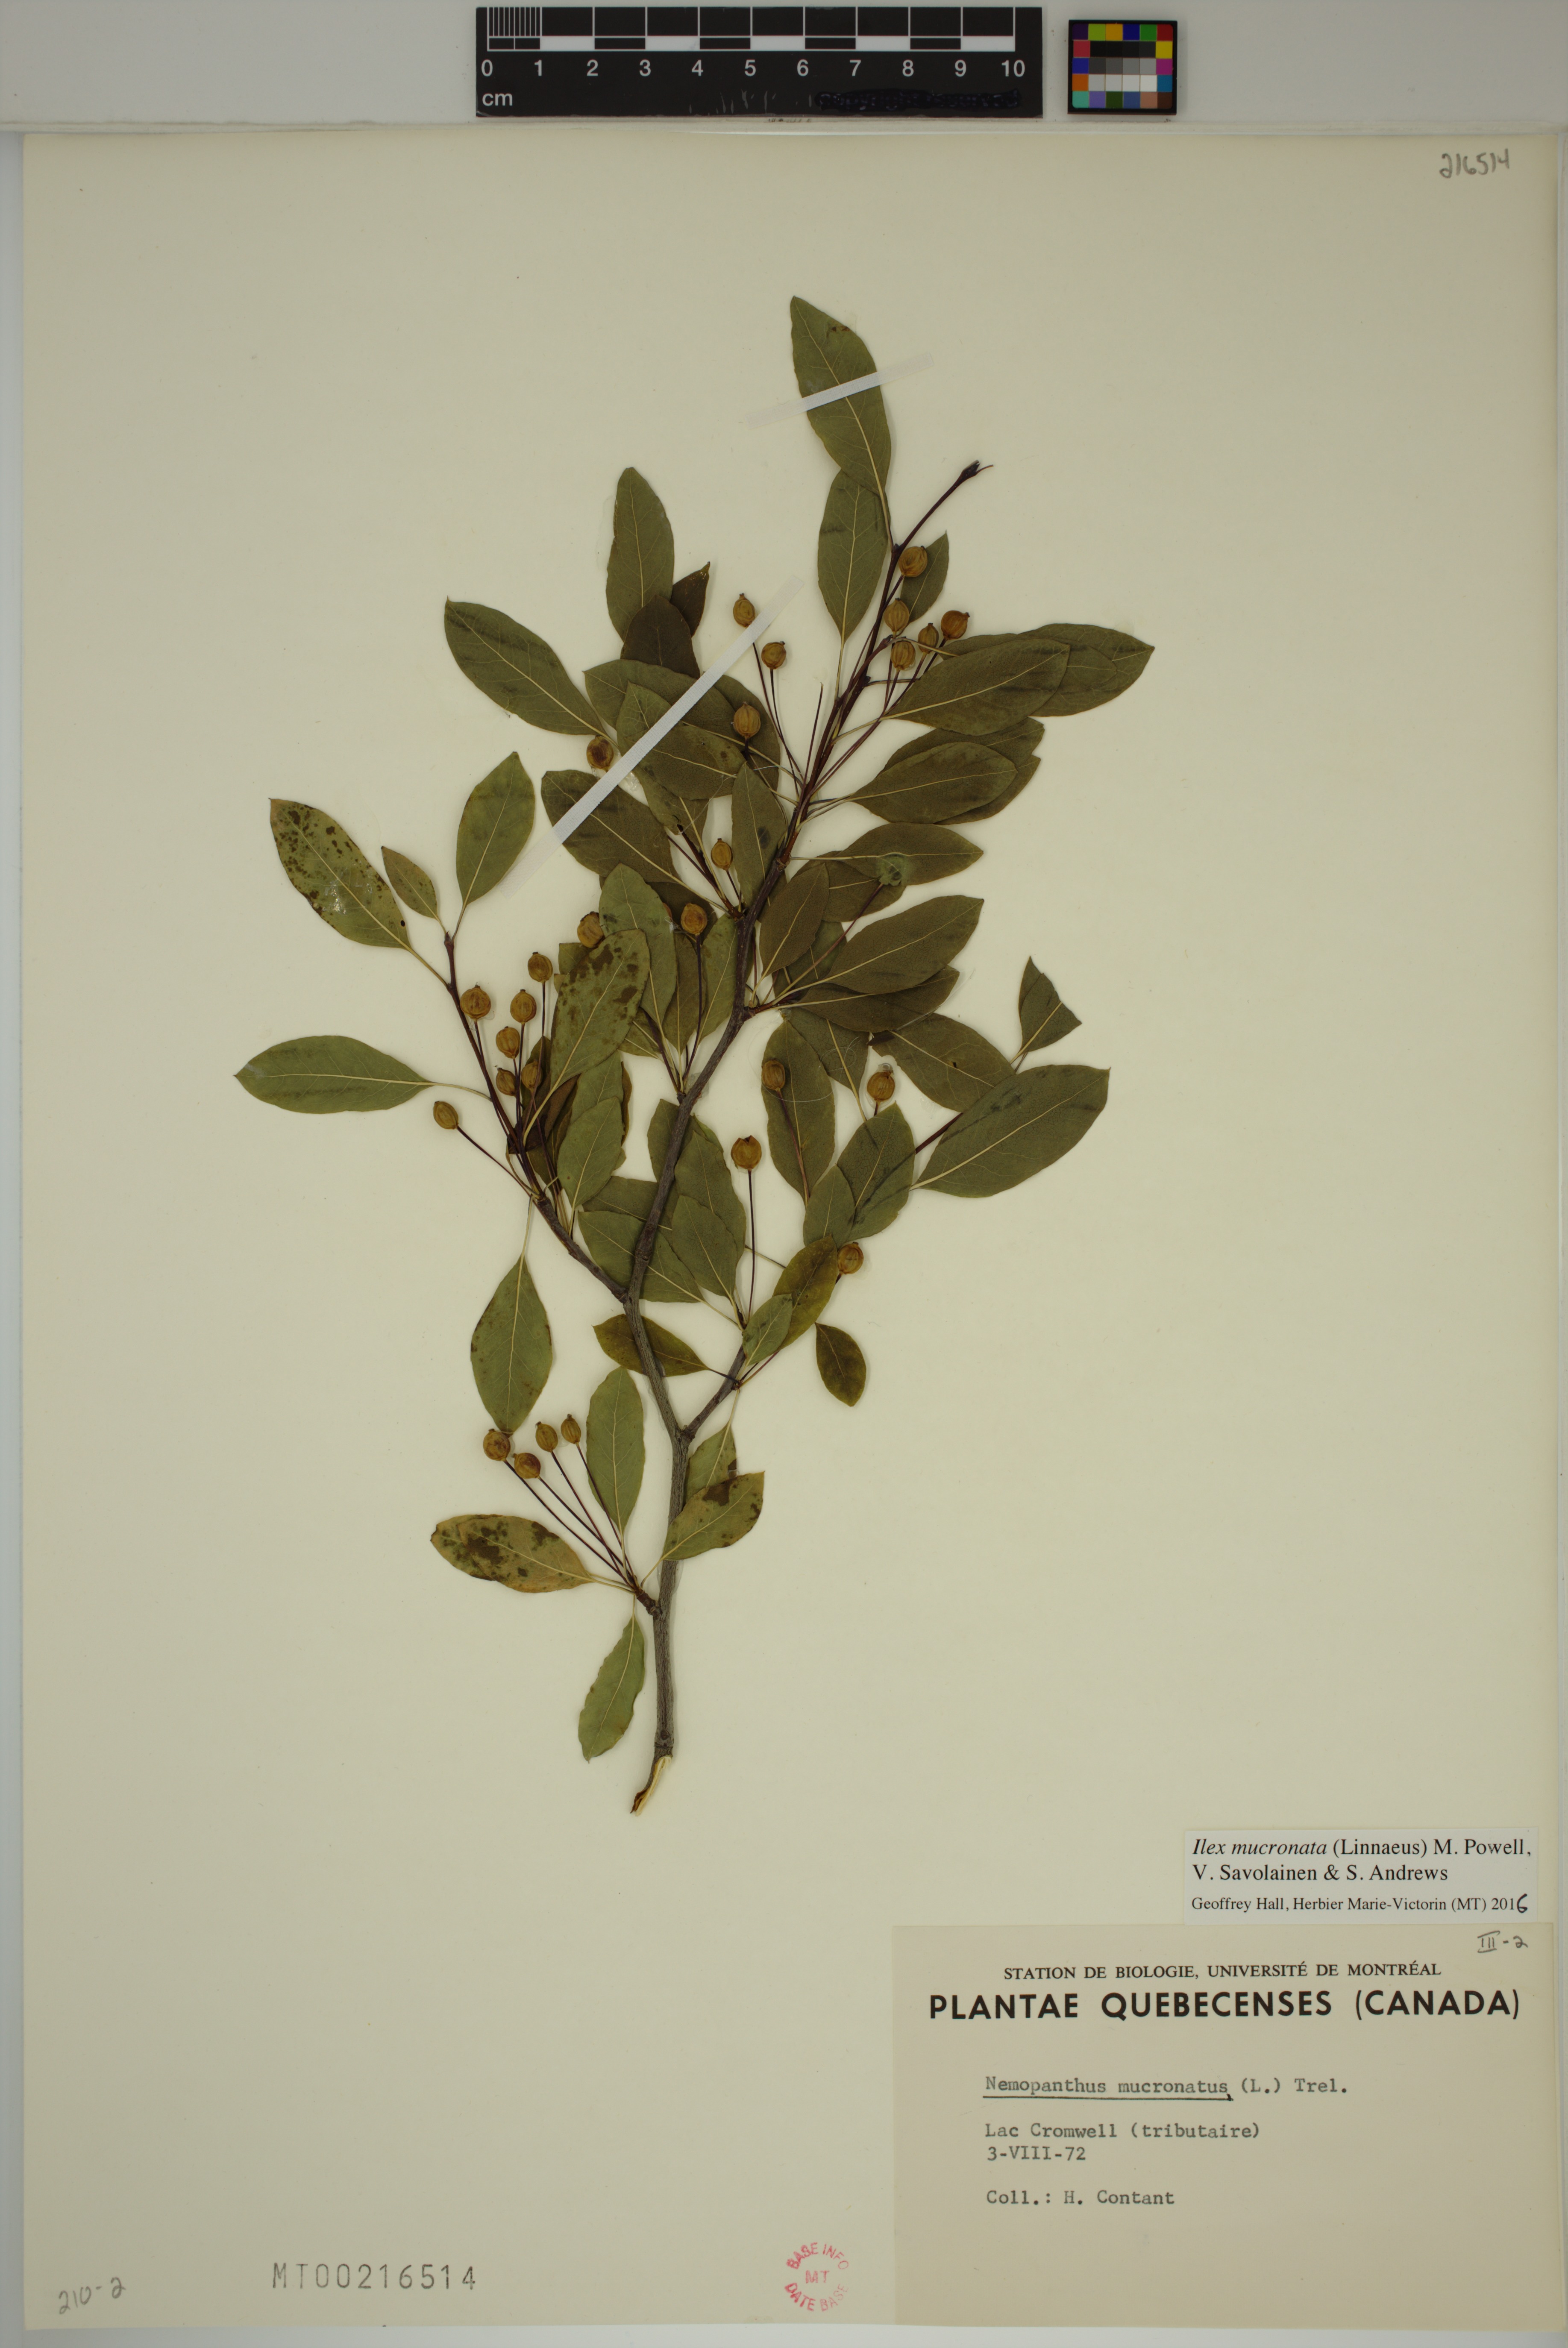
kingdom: Plantae
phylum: Tracheophyta
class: Magnoliopsida
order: Aquifoliales
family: Aquifoliaceae
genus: Ilex
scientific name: Ilex mucronata
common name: Catberry
